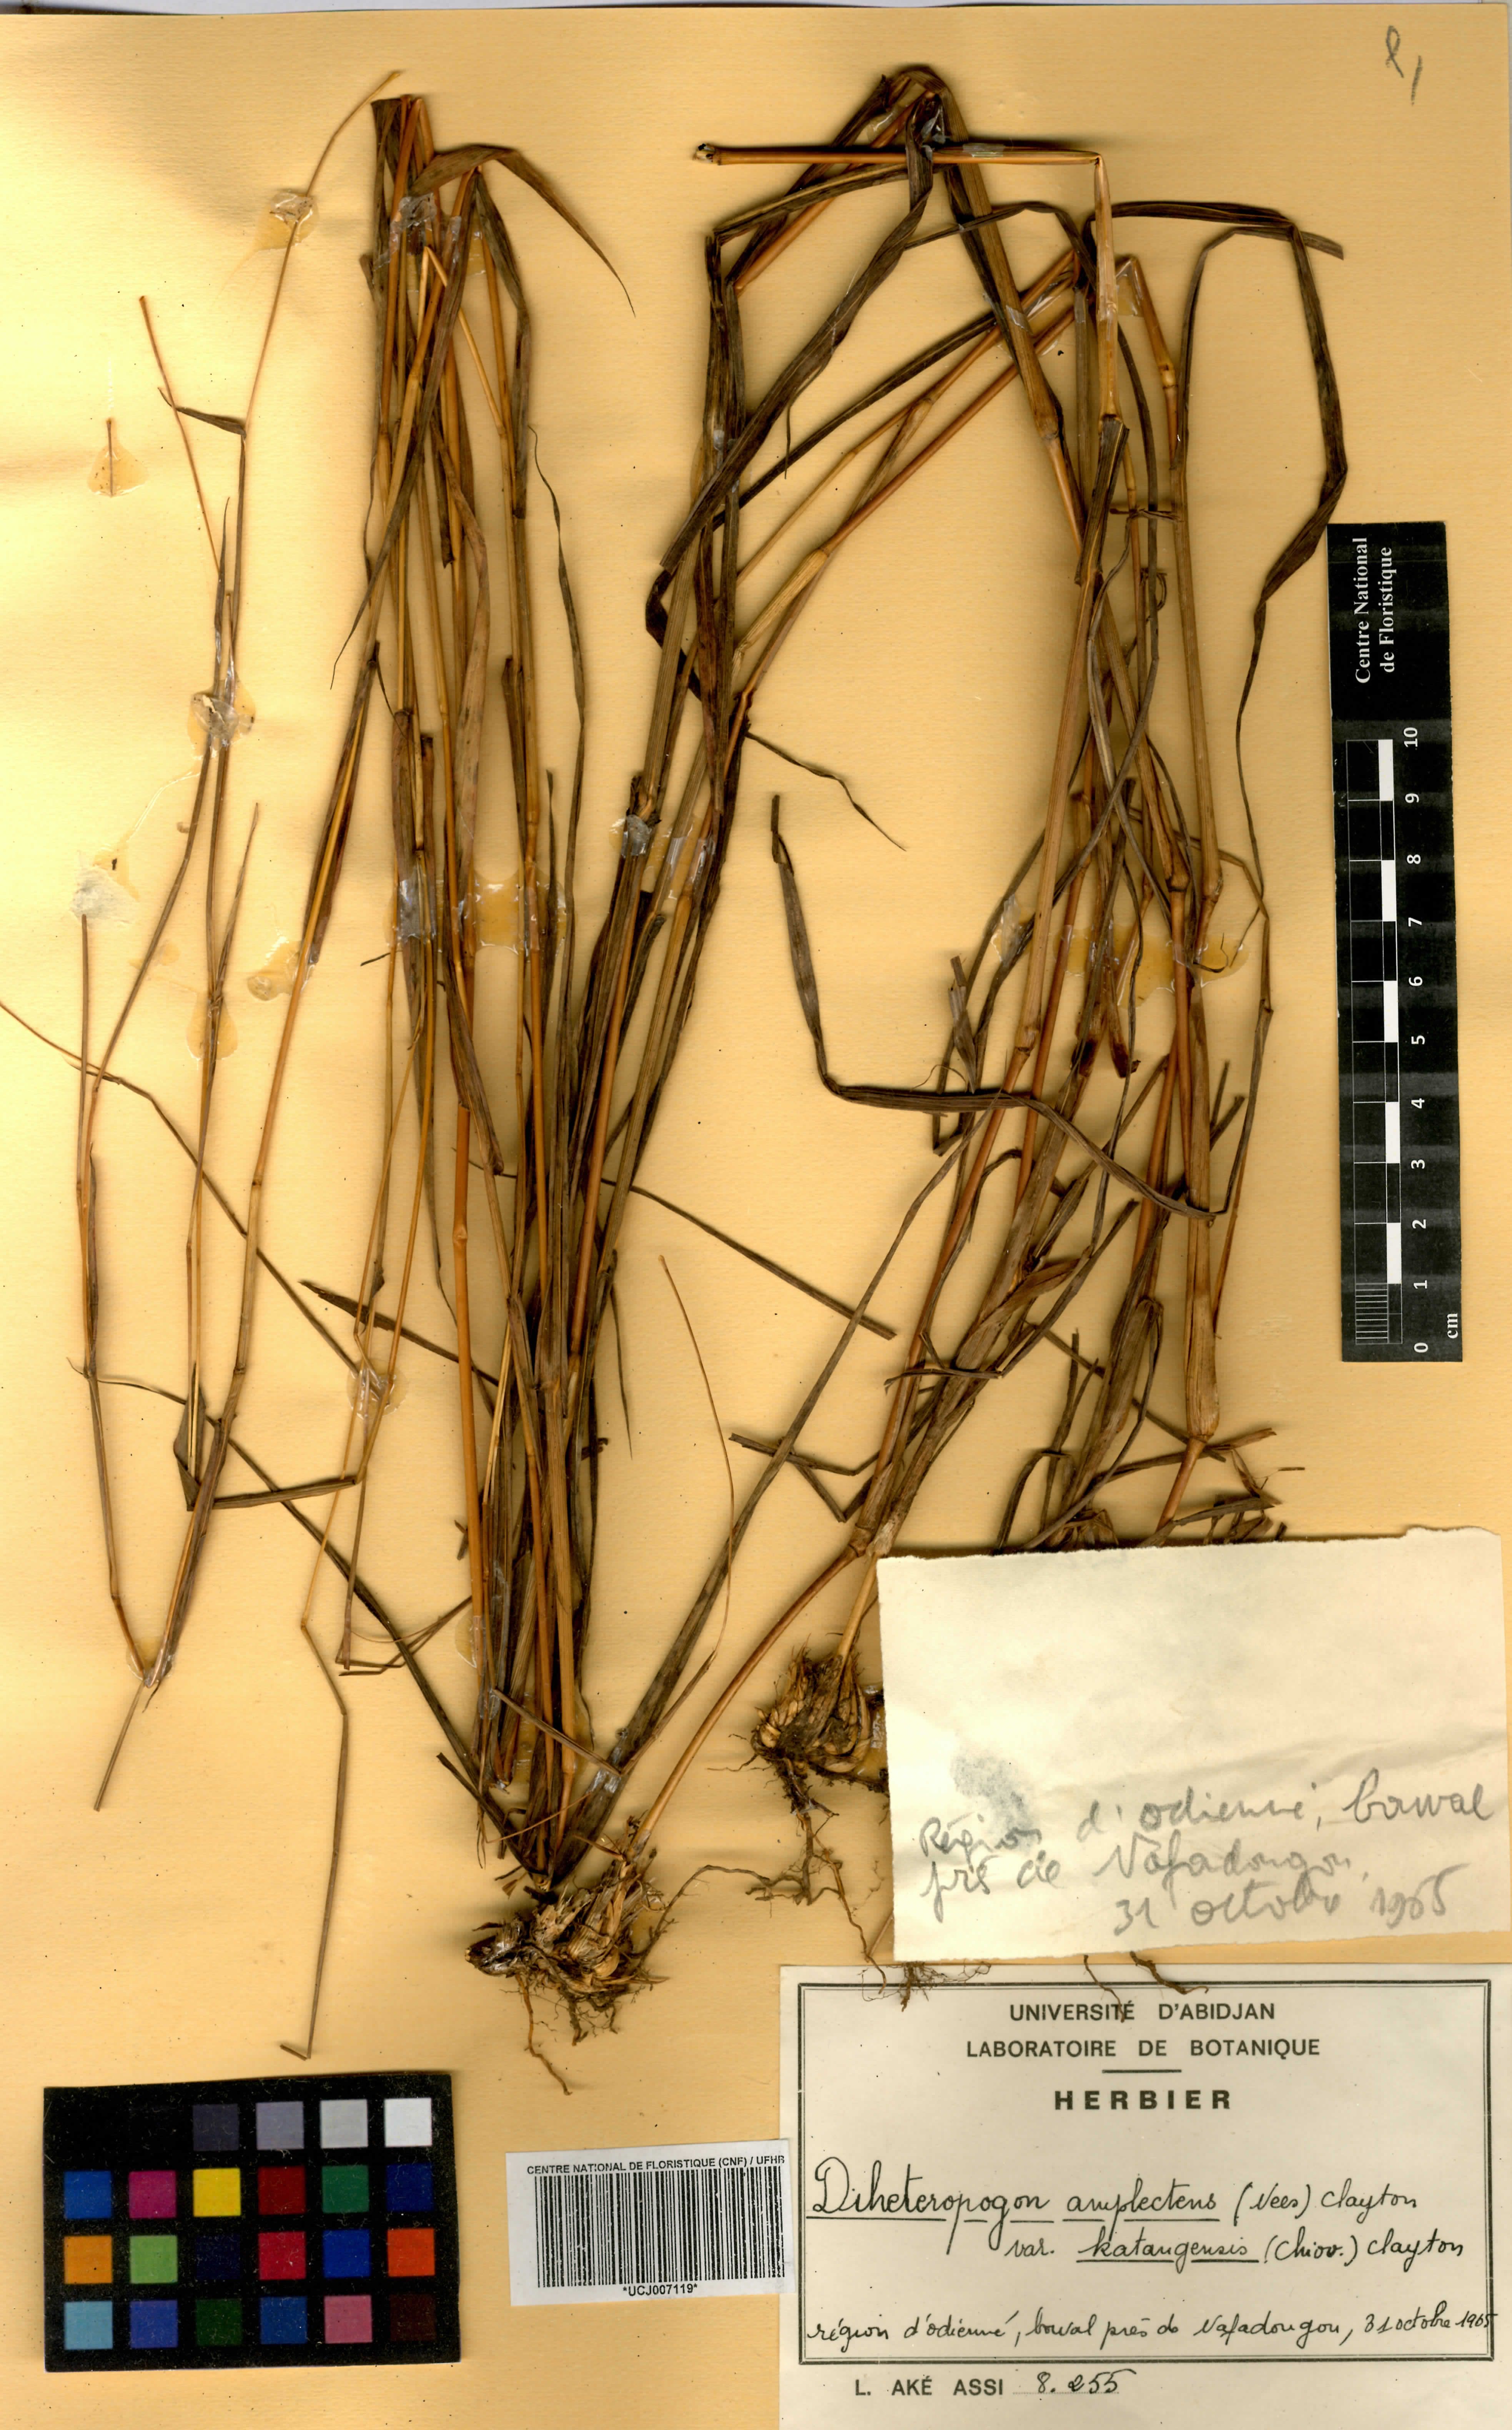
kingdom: Plantae
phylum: Tracheophyta
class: Liliopsida
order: Poales
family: Poaceae
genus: Diheteropogon
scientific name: Diheteropogon amplectens
